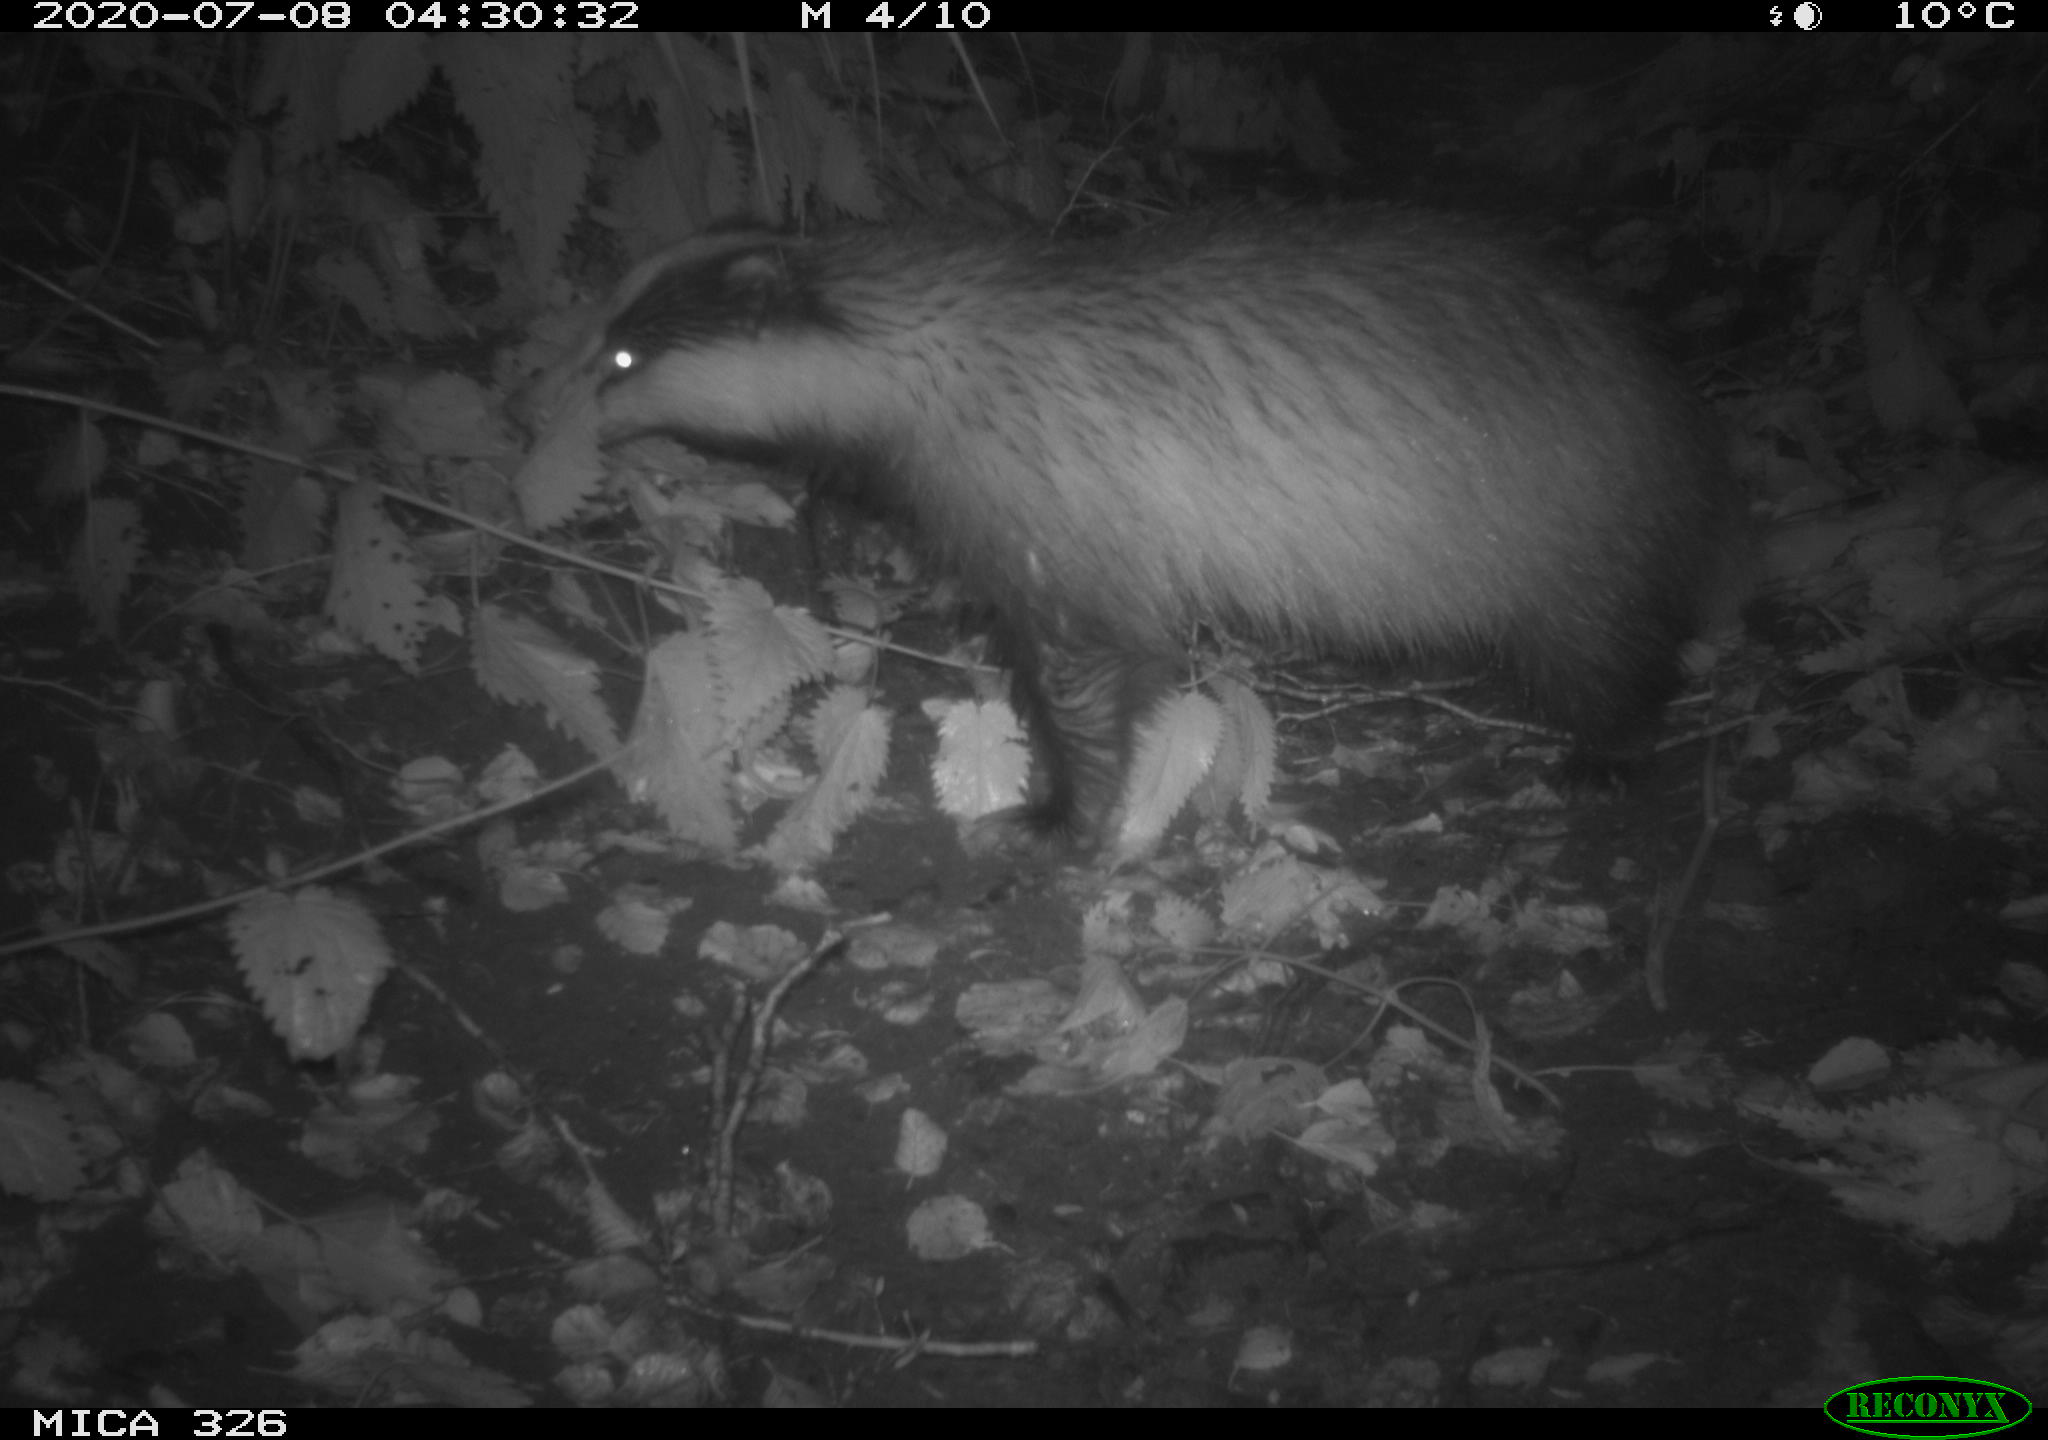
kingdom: Animalia
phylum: Chordata
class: Mammalia
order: Carnivora
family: Mustelidae
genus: Meles
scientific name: Meles meles
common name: Eurasian badger
